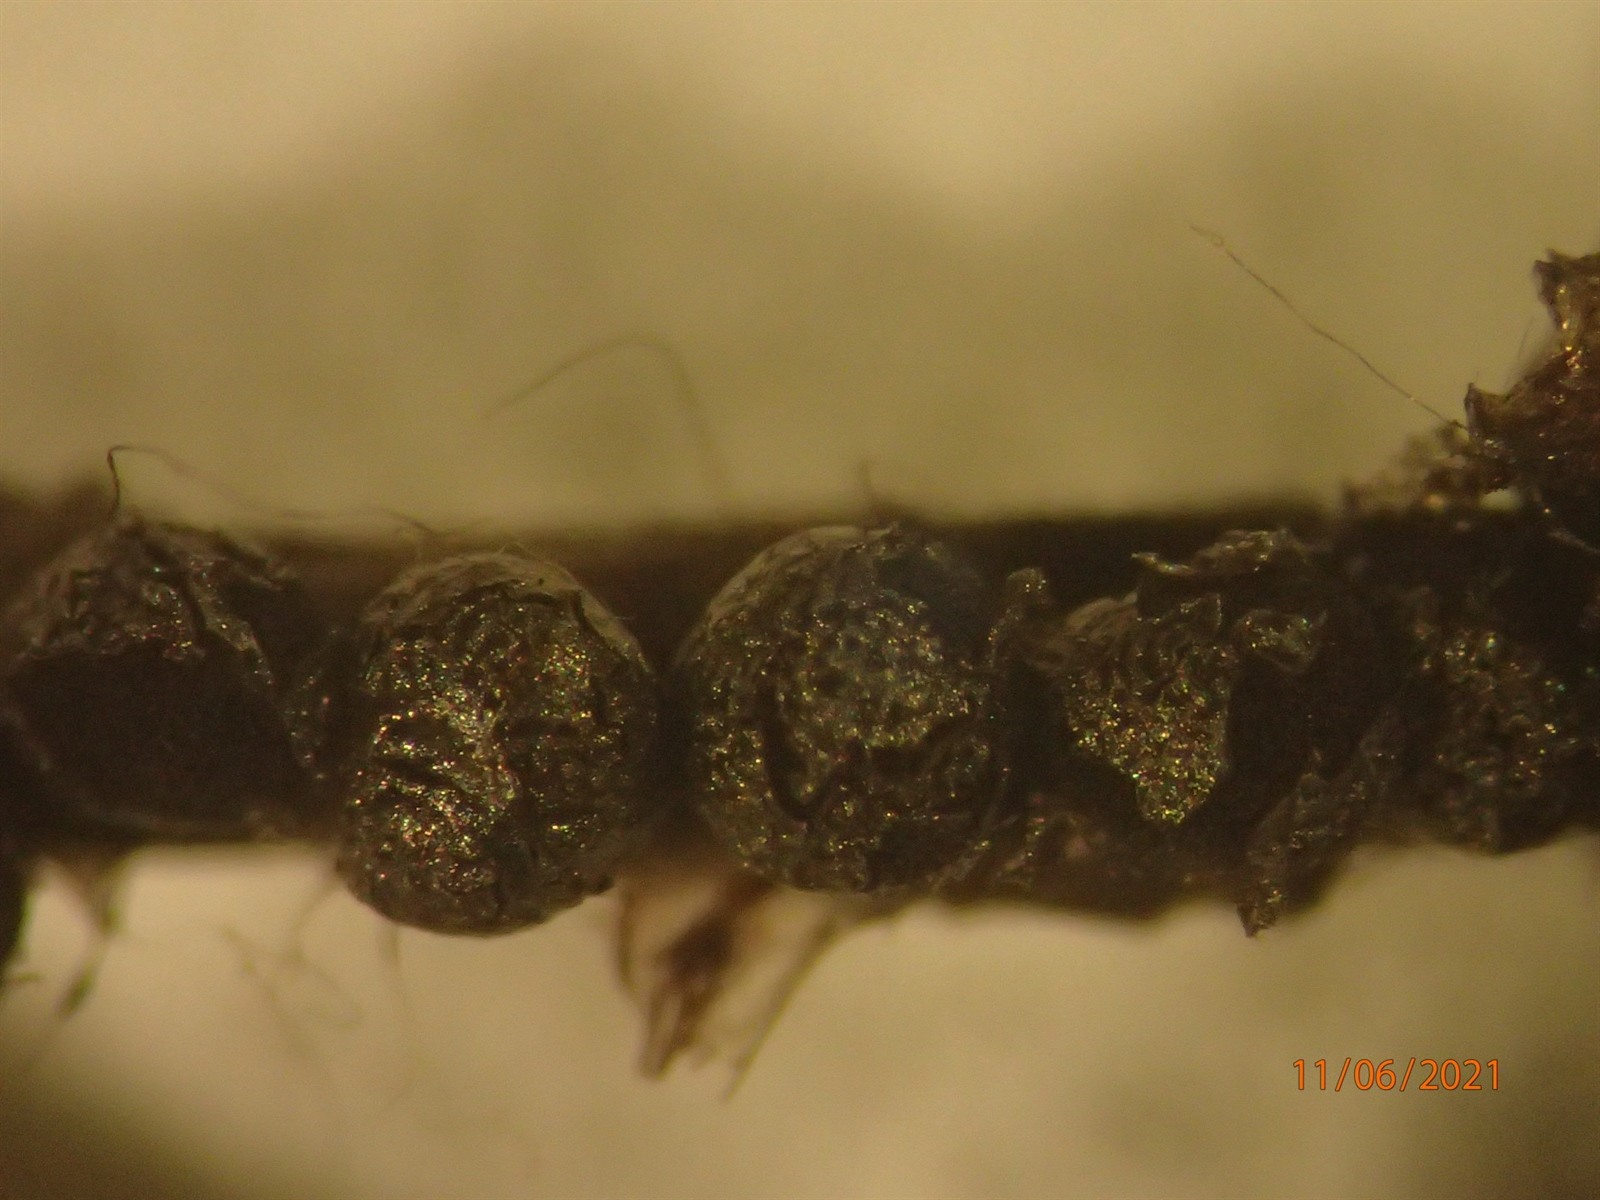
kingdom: Protozoa
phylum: Mycetozoa
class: Myxomycetes
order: Stemonitidales
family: Stemonitidaceae
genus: Lamproderma
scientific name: Lamproderma macrosporum
